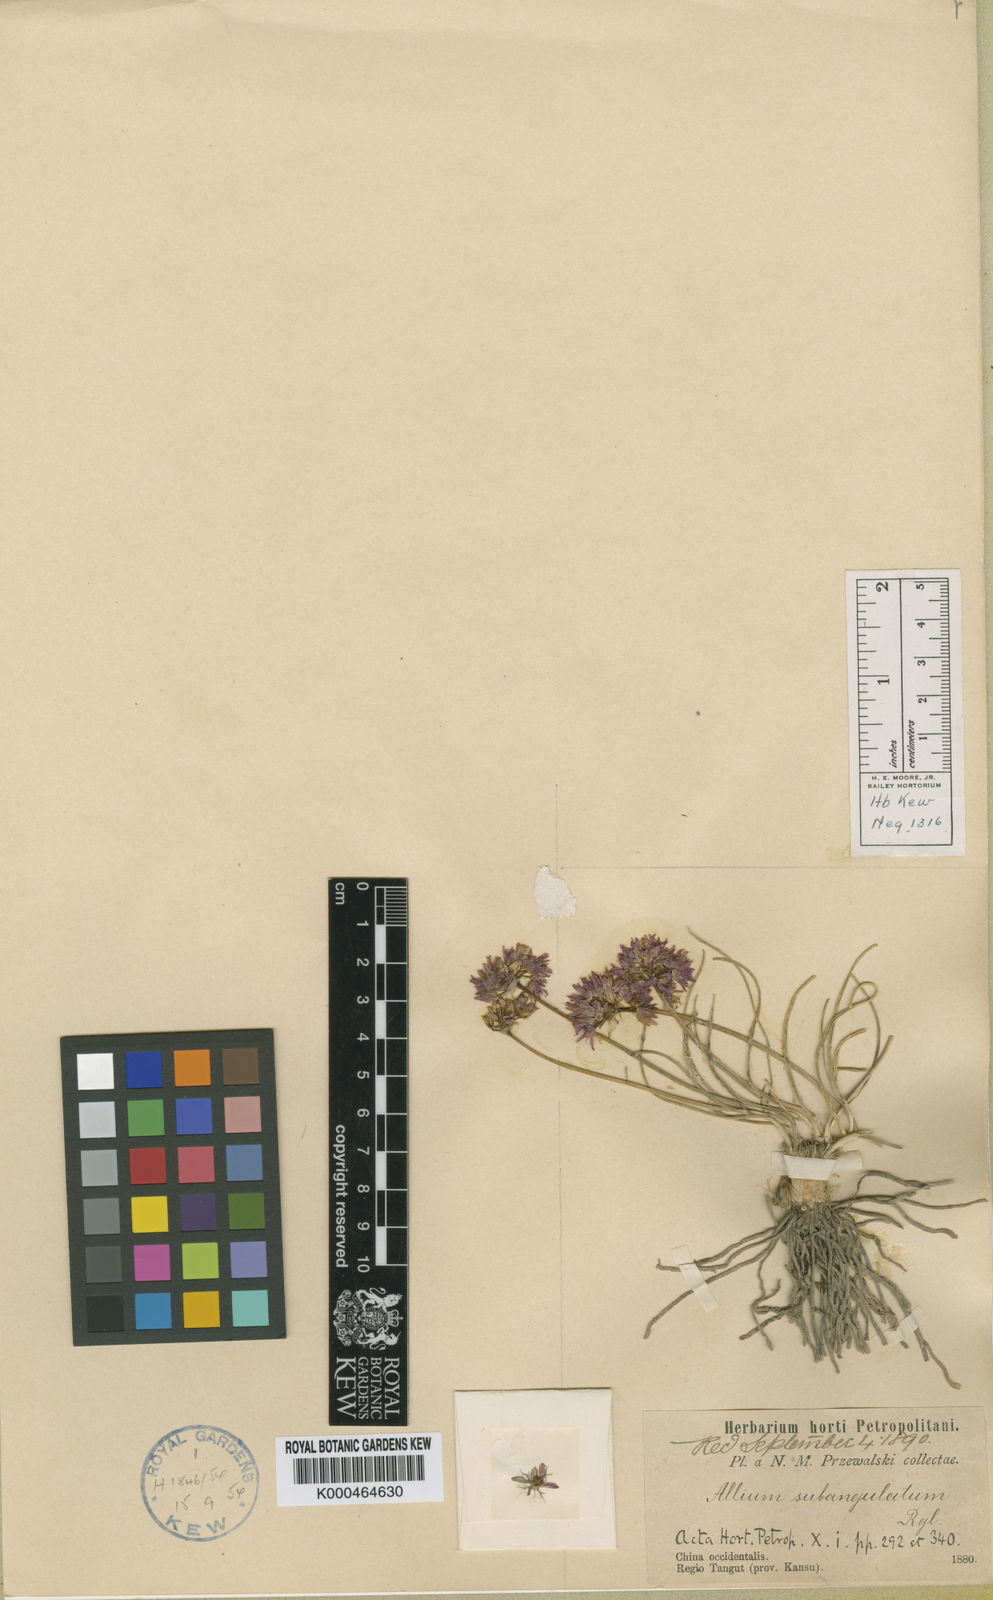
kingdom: Plantae
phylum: Tracheophyta
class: Liliopsida
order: Asparagales
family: Amaryllidaceae
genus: Allium
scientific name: Allium subangulatum
